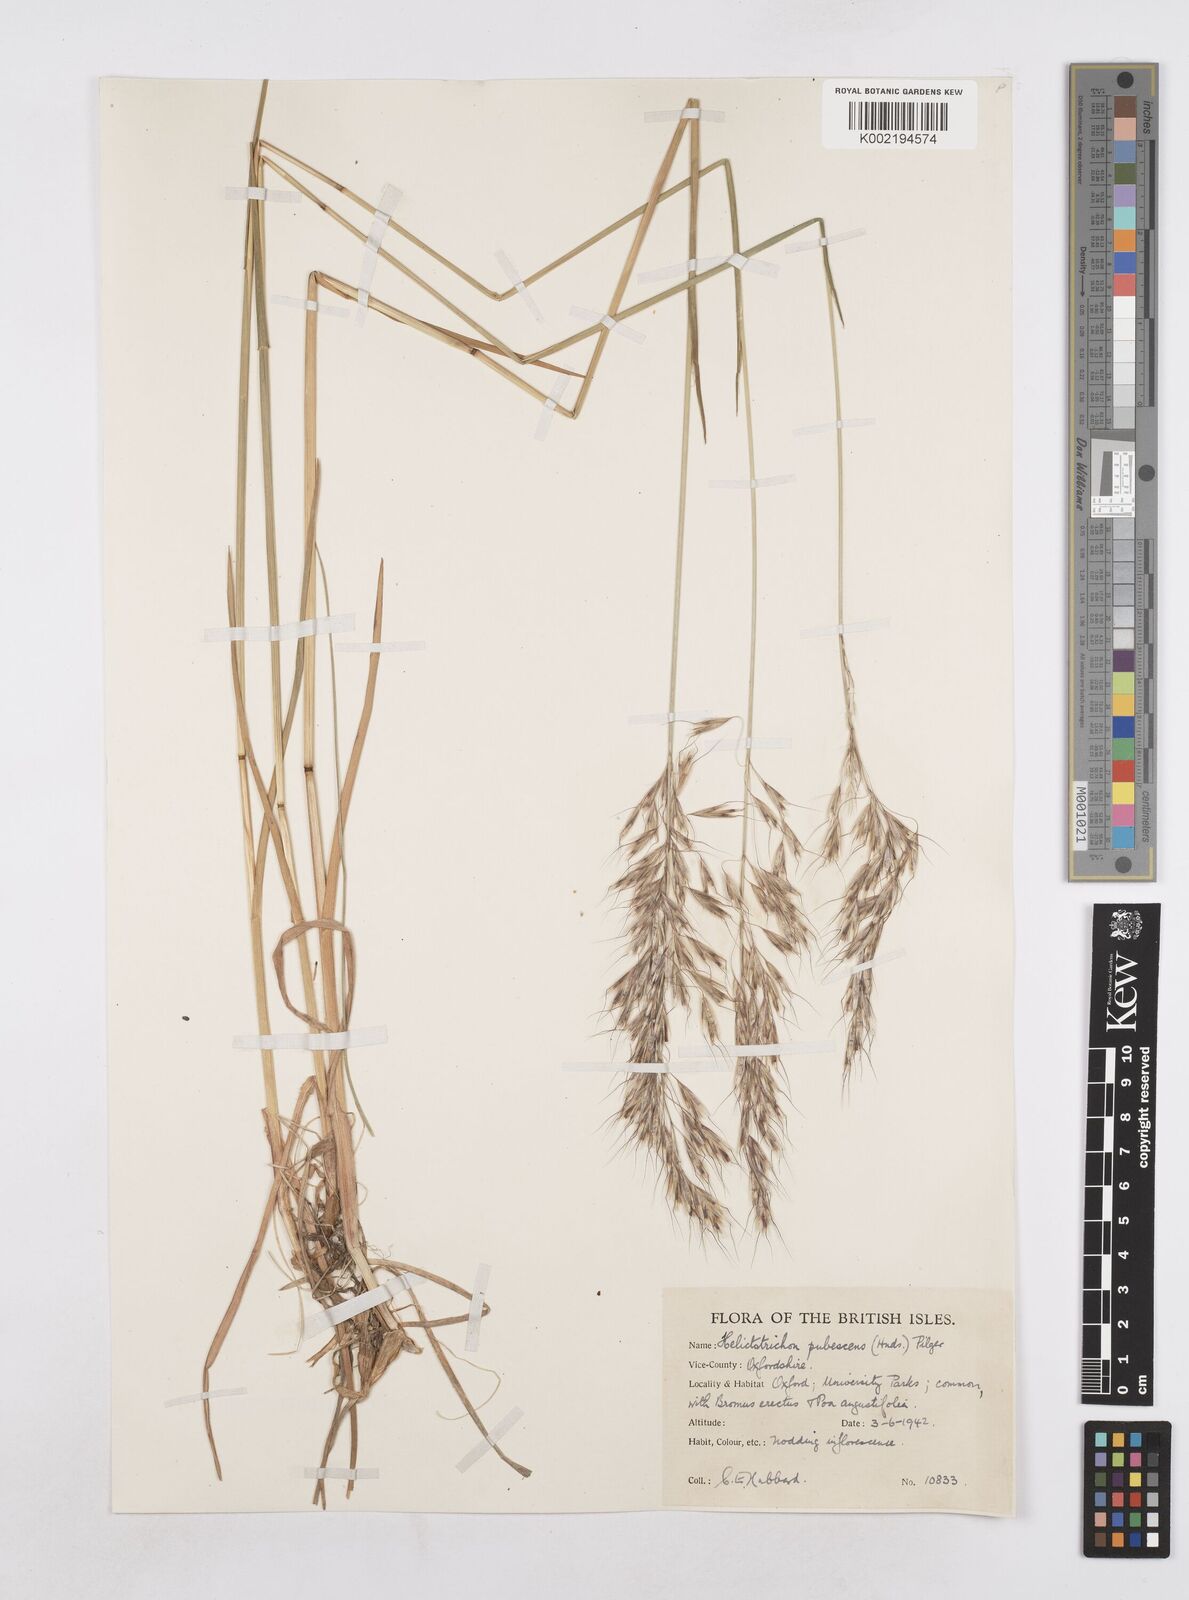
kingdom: Plantae
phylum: Tracheophyta
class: Liliopsida
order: Poales
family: Poaceae
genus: Avenula
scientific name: Avenula pubescens
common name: Downy alpine oatgrass
